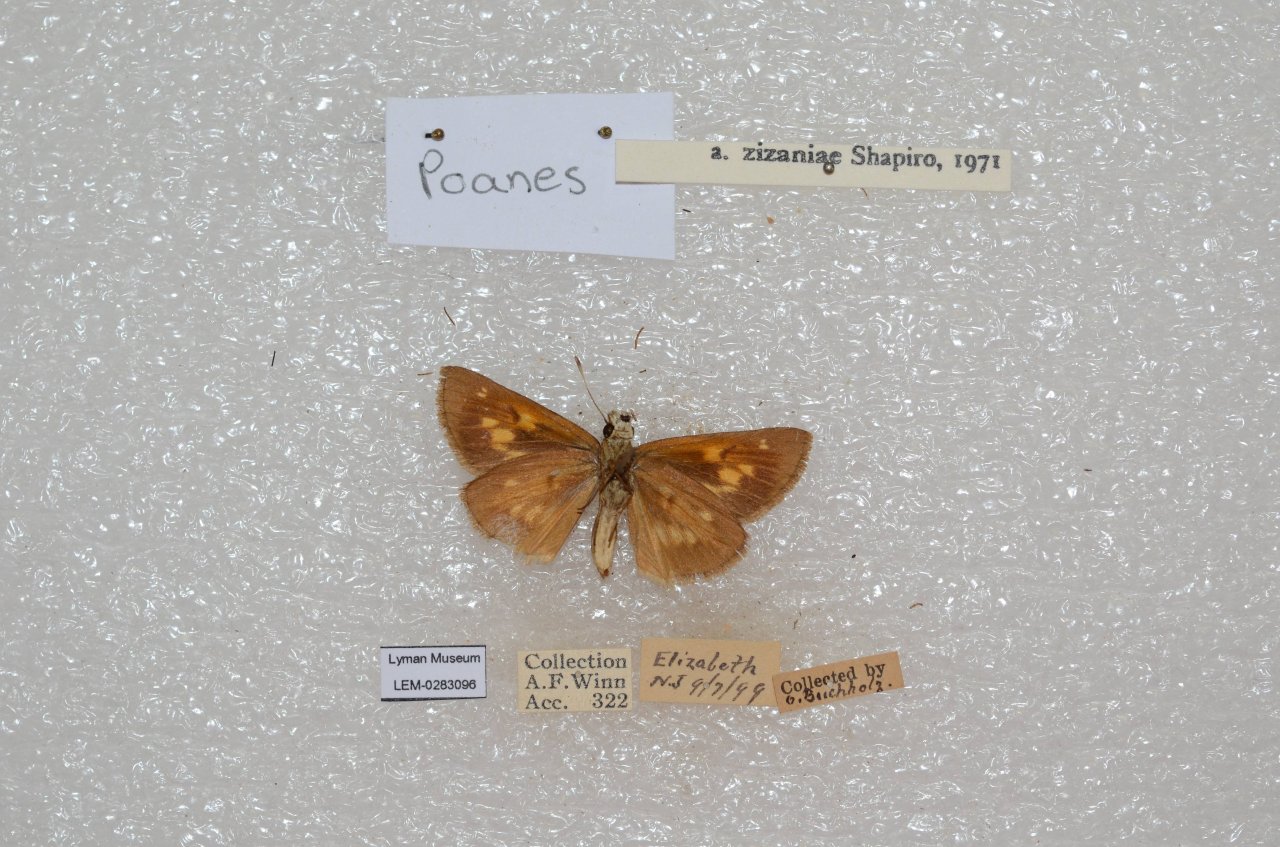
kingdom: Animalia
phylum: Arthropoda
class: Insecta
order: Lepidoptera
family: Hesperiidae
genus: Poanes
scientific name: Poanes viator
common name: Broad-winged Skipper
